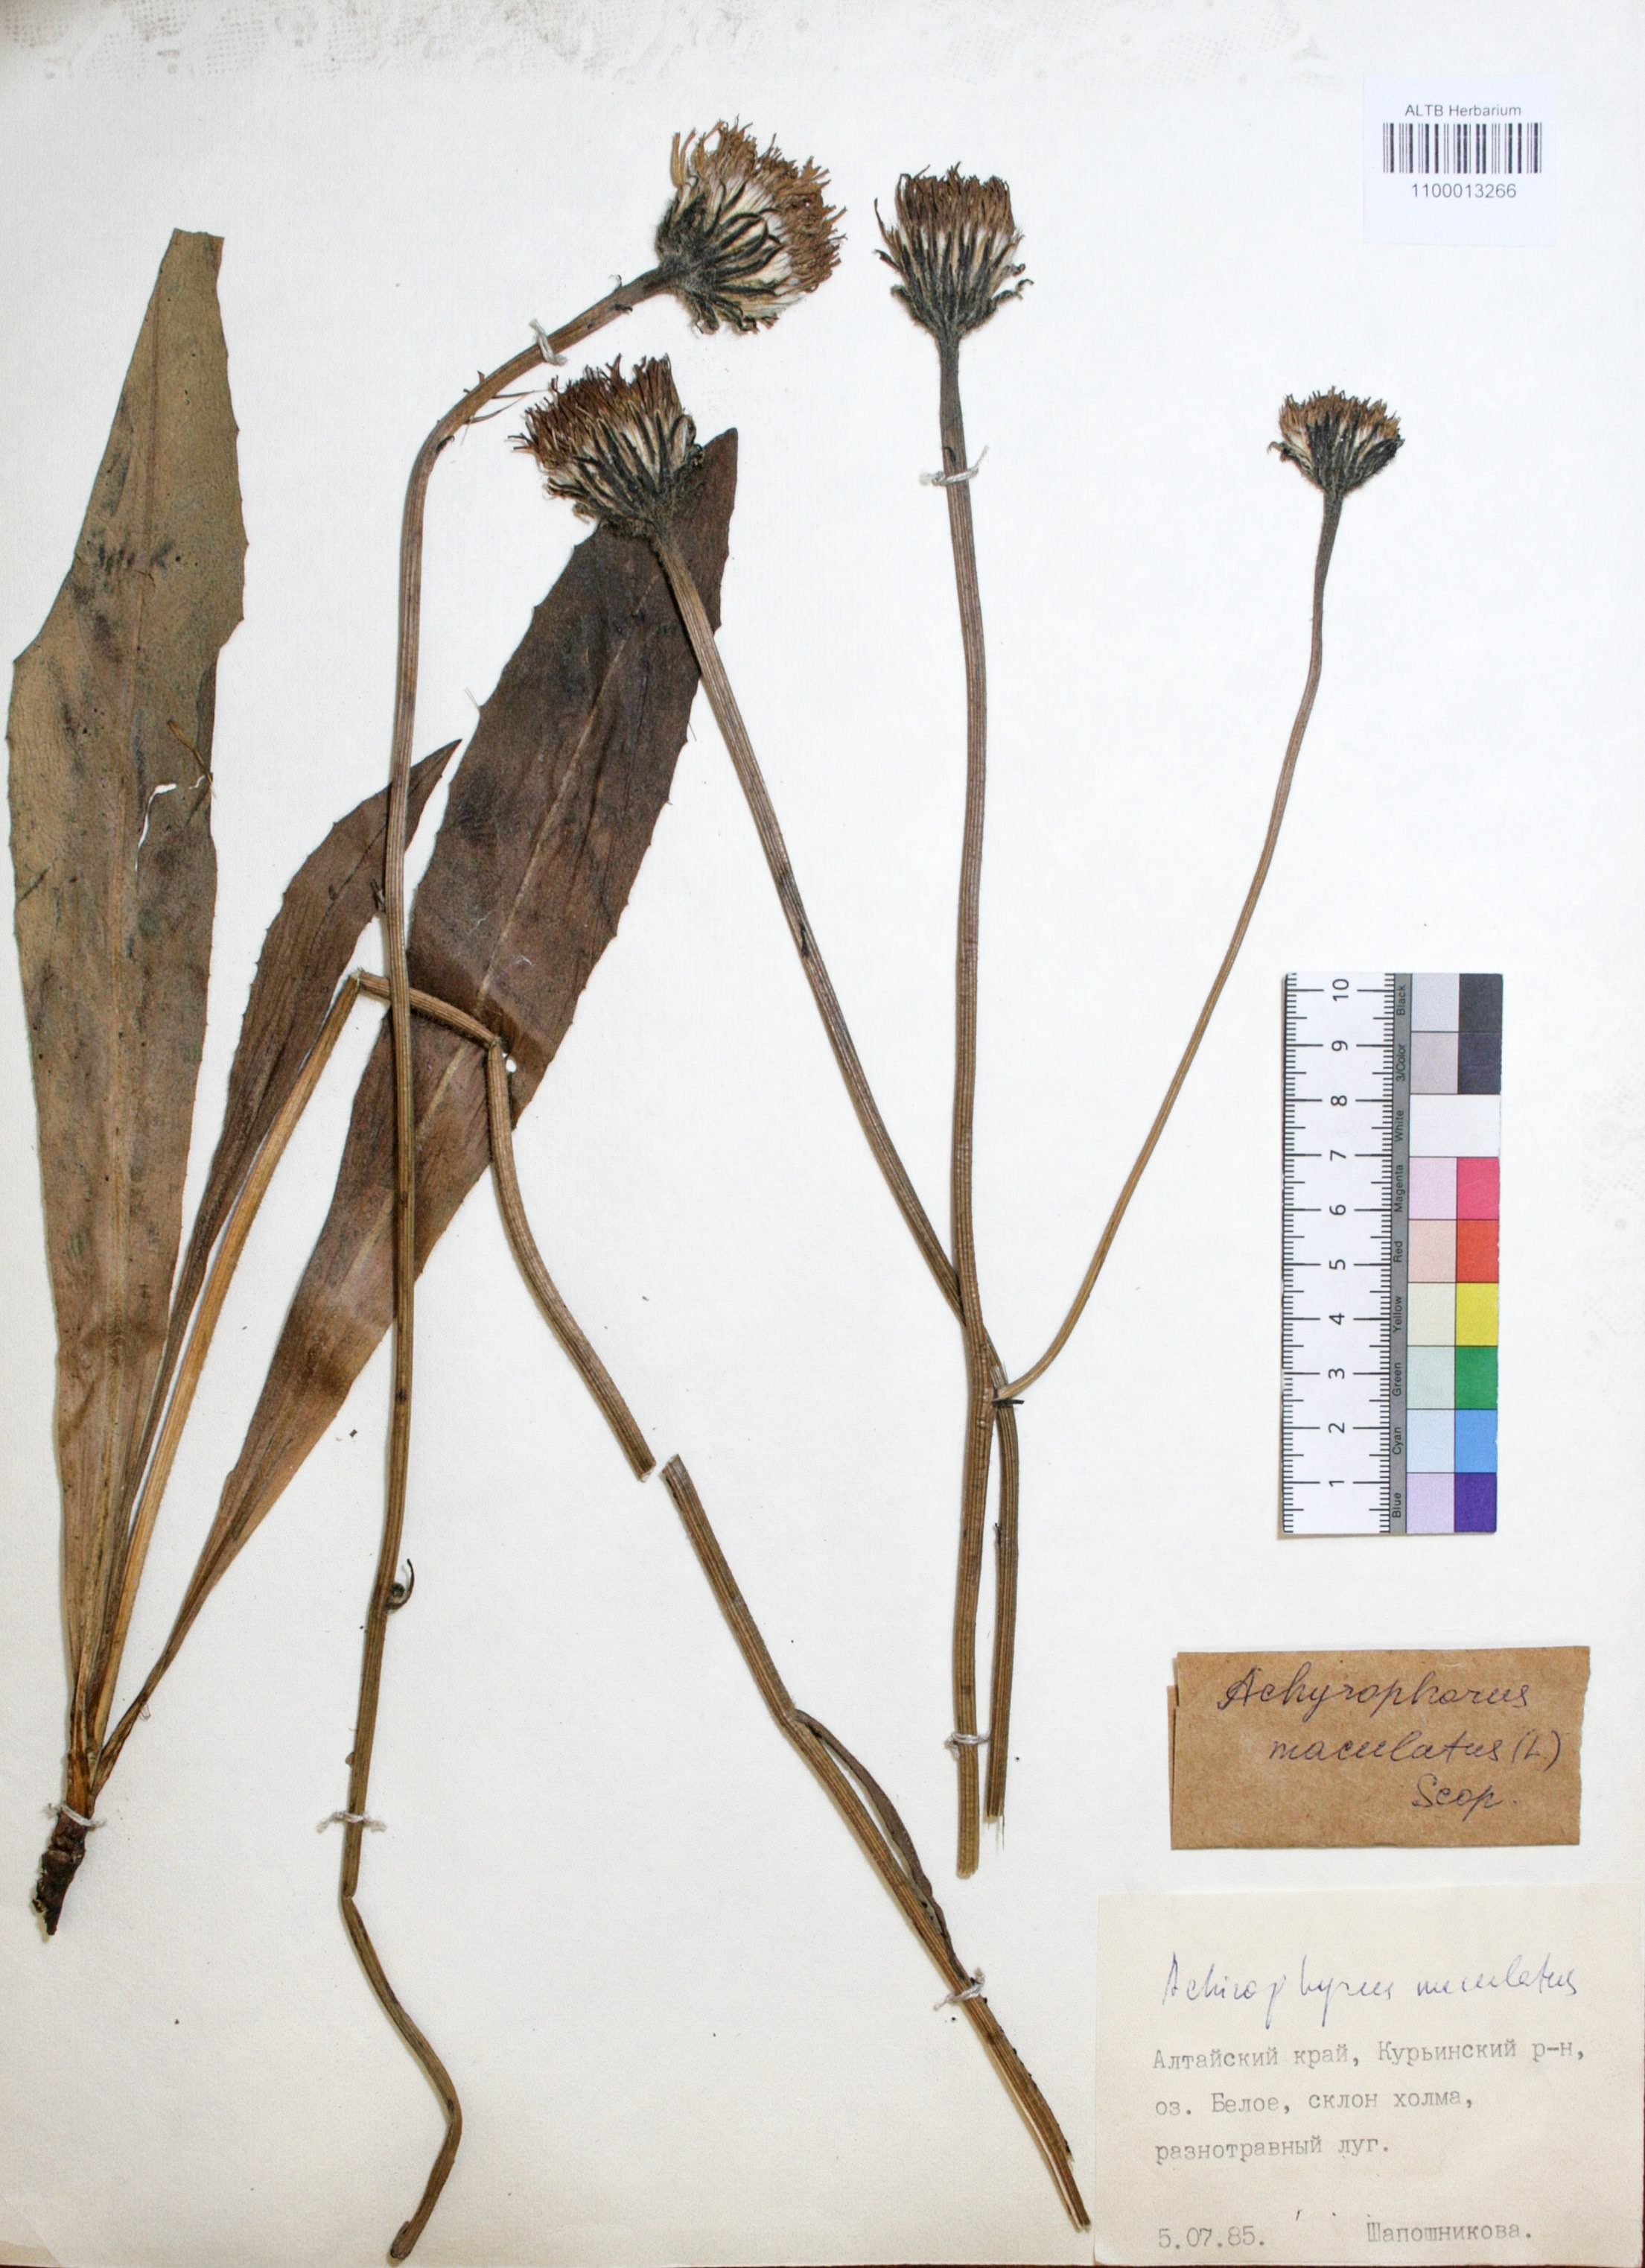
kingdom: Plantae
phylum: Tracheophyta
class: Magnoliopsida
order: Asterales
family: Asteraceae
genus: Trommsdorffia
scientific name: Trommsdorffia maculata
